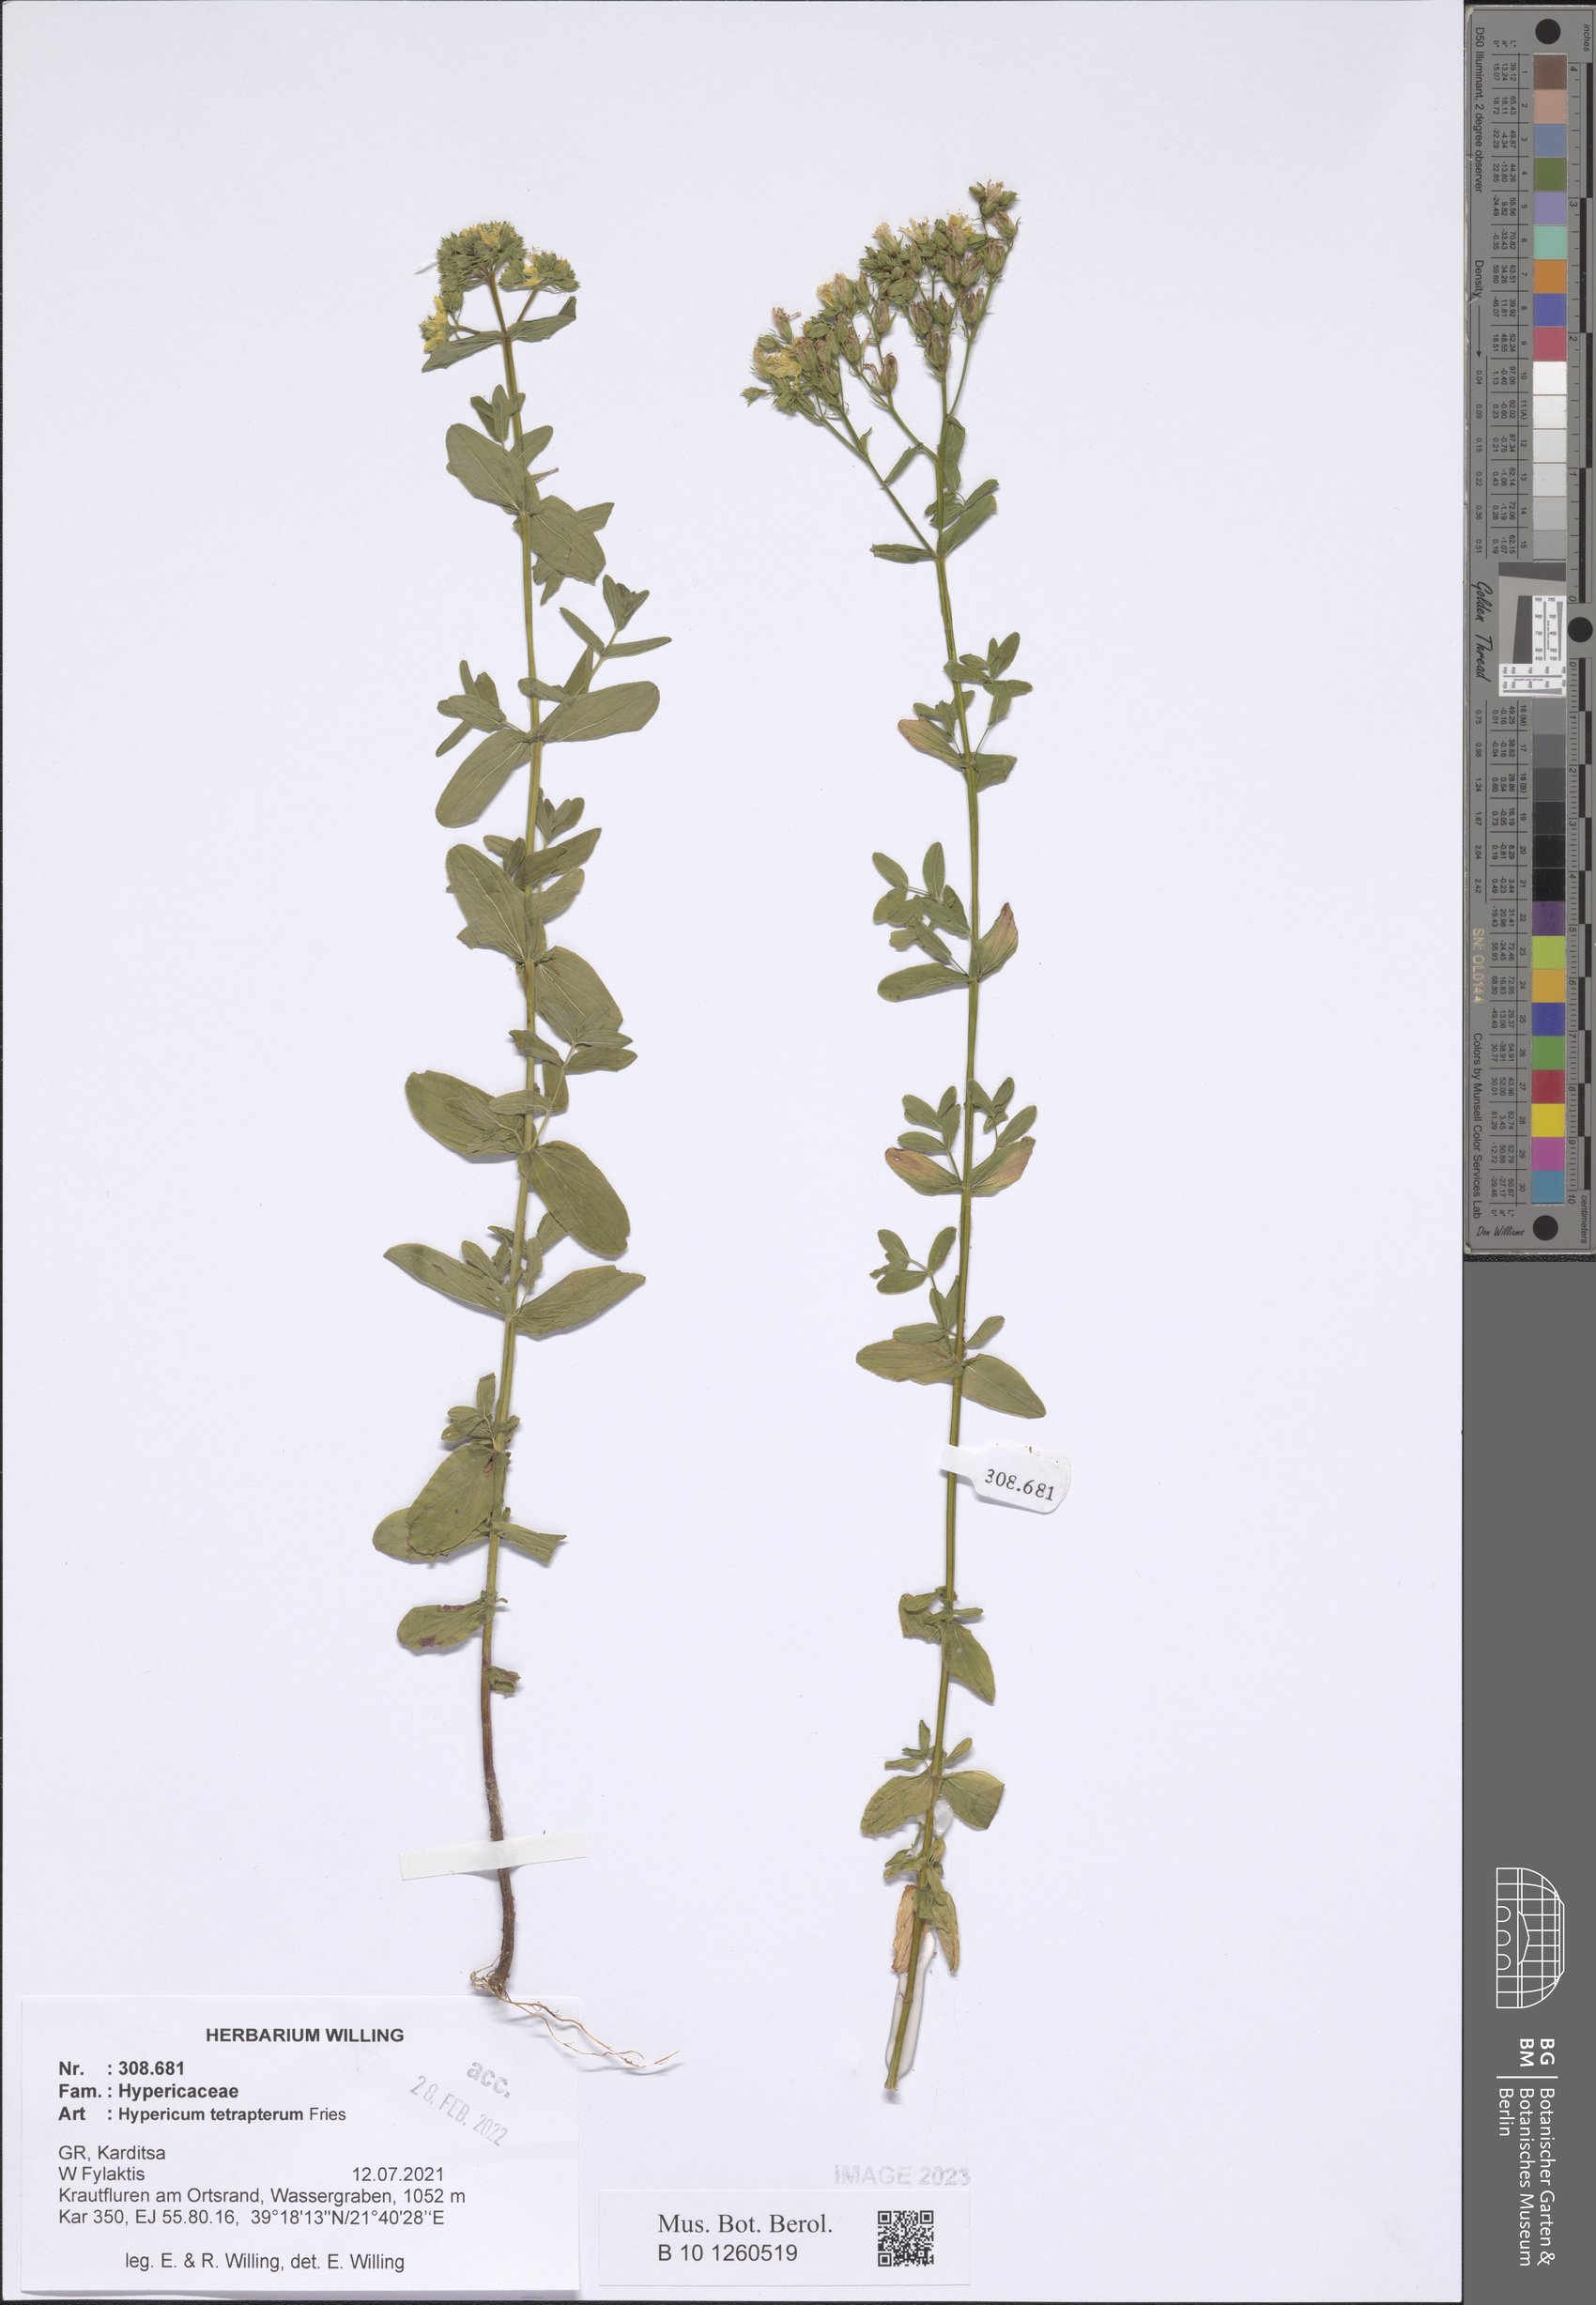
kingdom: Plantae
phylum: Tracheophyta
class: Magnoliopsida
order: Malpighiales
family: Hypericaceae
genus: Hypericum
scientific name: Hypericum tetrapterum
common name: Square-stalked st. john's-wort
